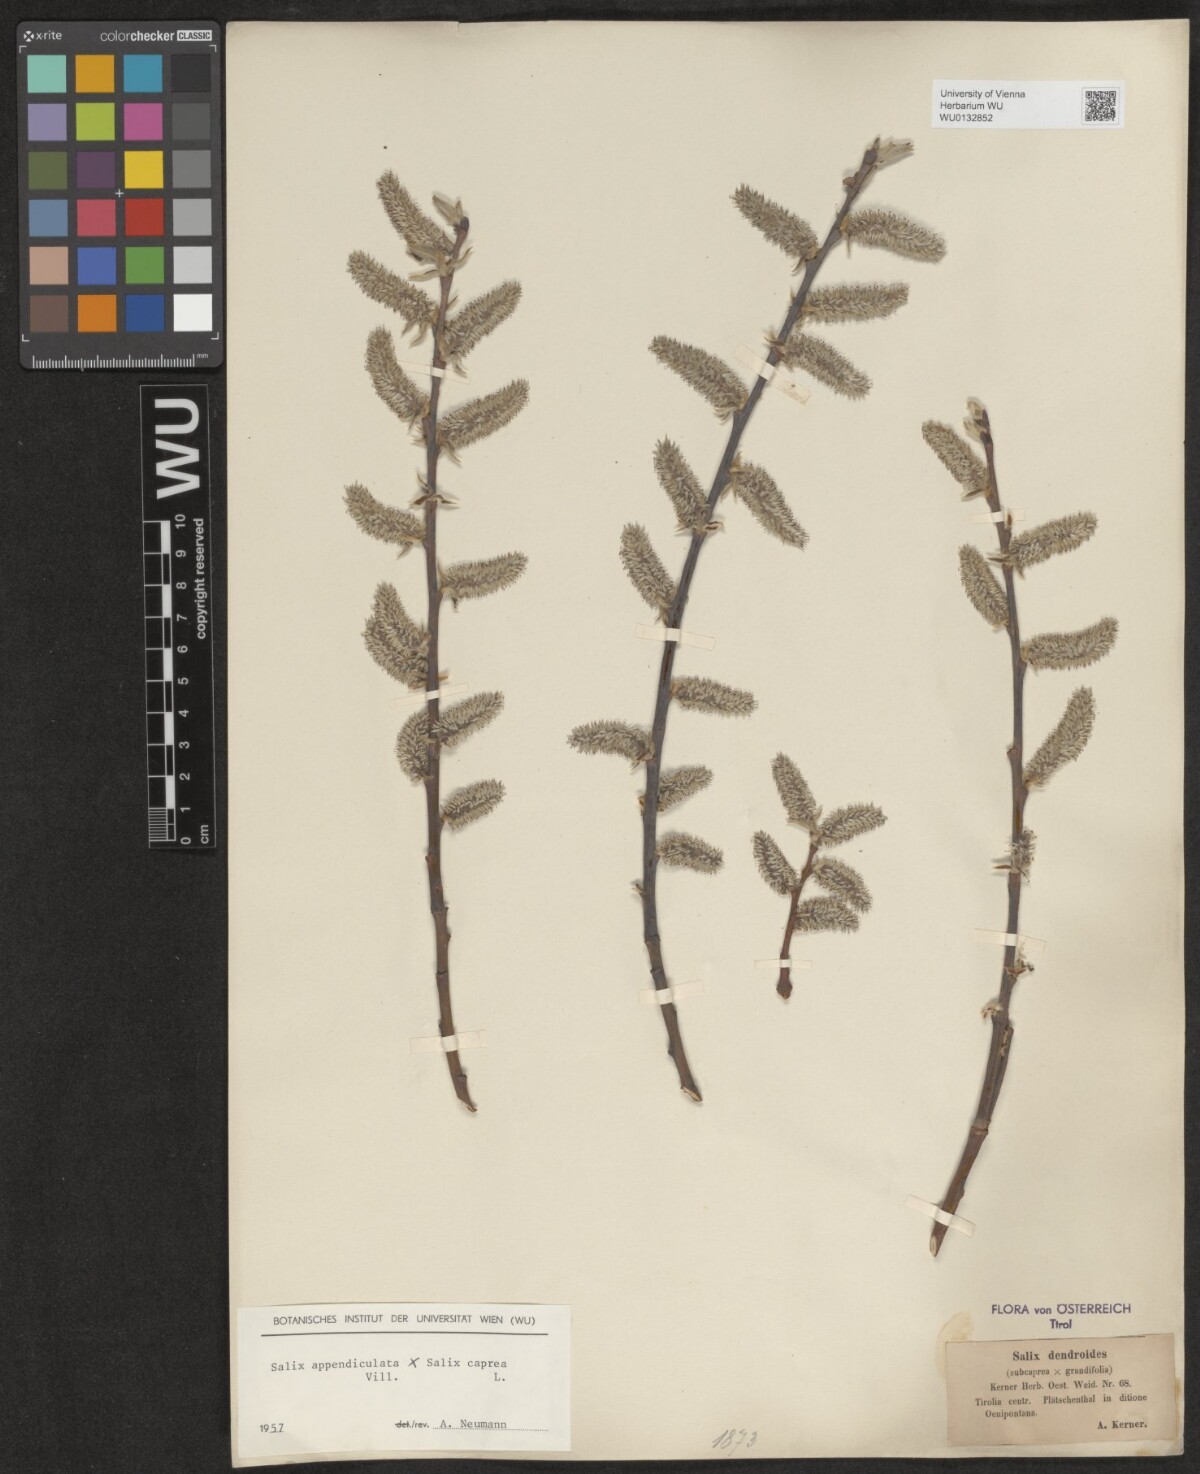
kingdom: Plantae
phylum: Tracheophyta
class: Magnoliopsida
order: Malpighiales
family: Salicaceae
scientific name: Salicaceae
